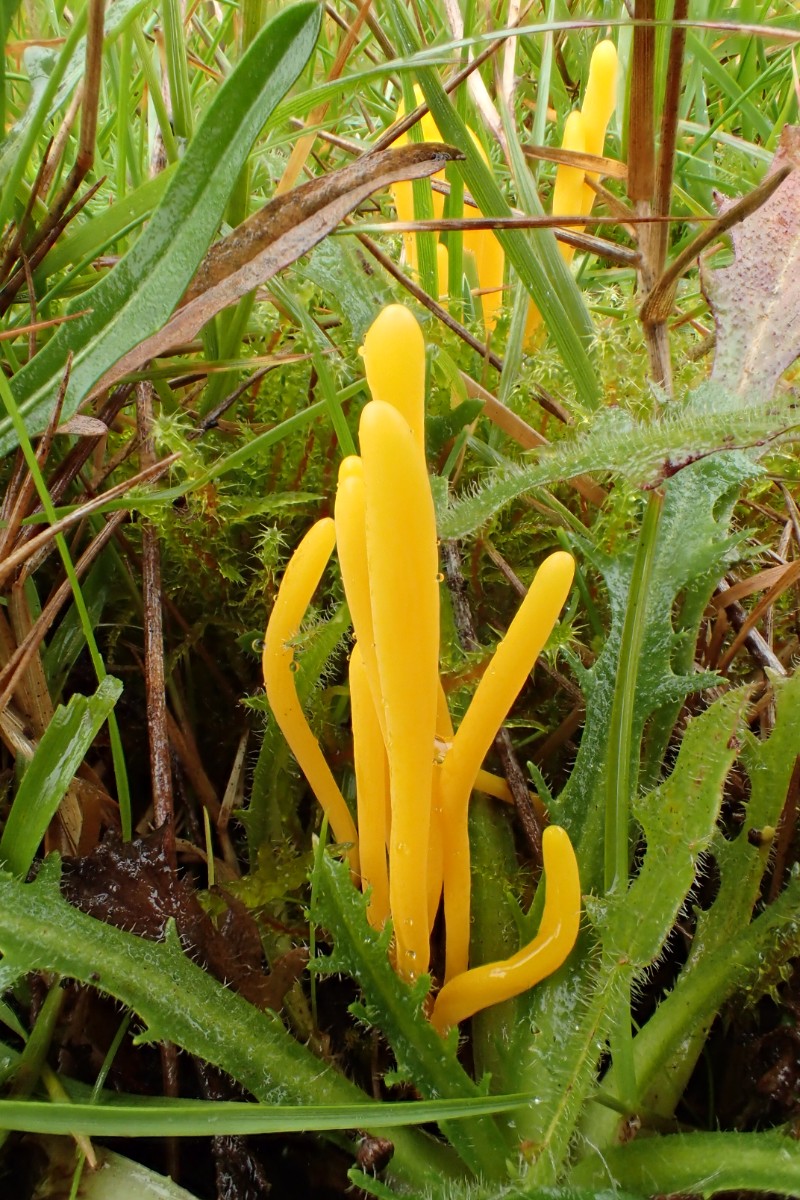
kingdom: Fungi
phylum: Basidiomycota
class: Agaricomycetes
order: Agaricales
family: Clavariaceae
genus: Clavulinopsis
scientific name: Clavulinopsis helvola
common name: orangegul køllesvamp
